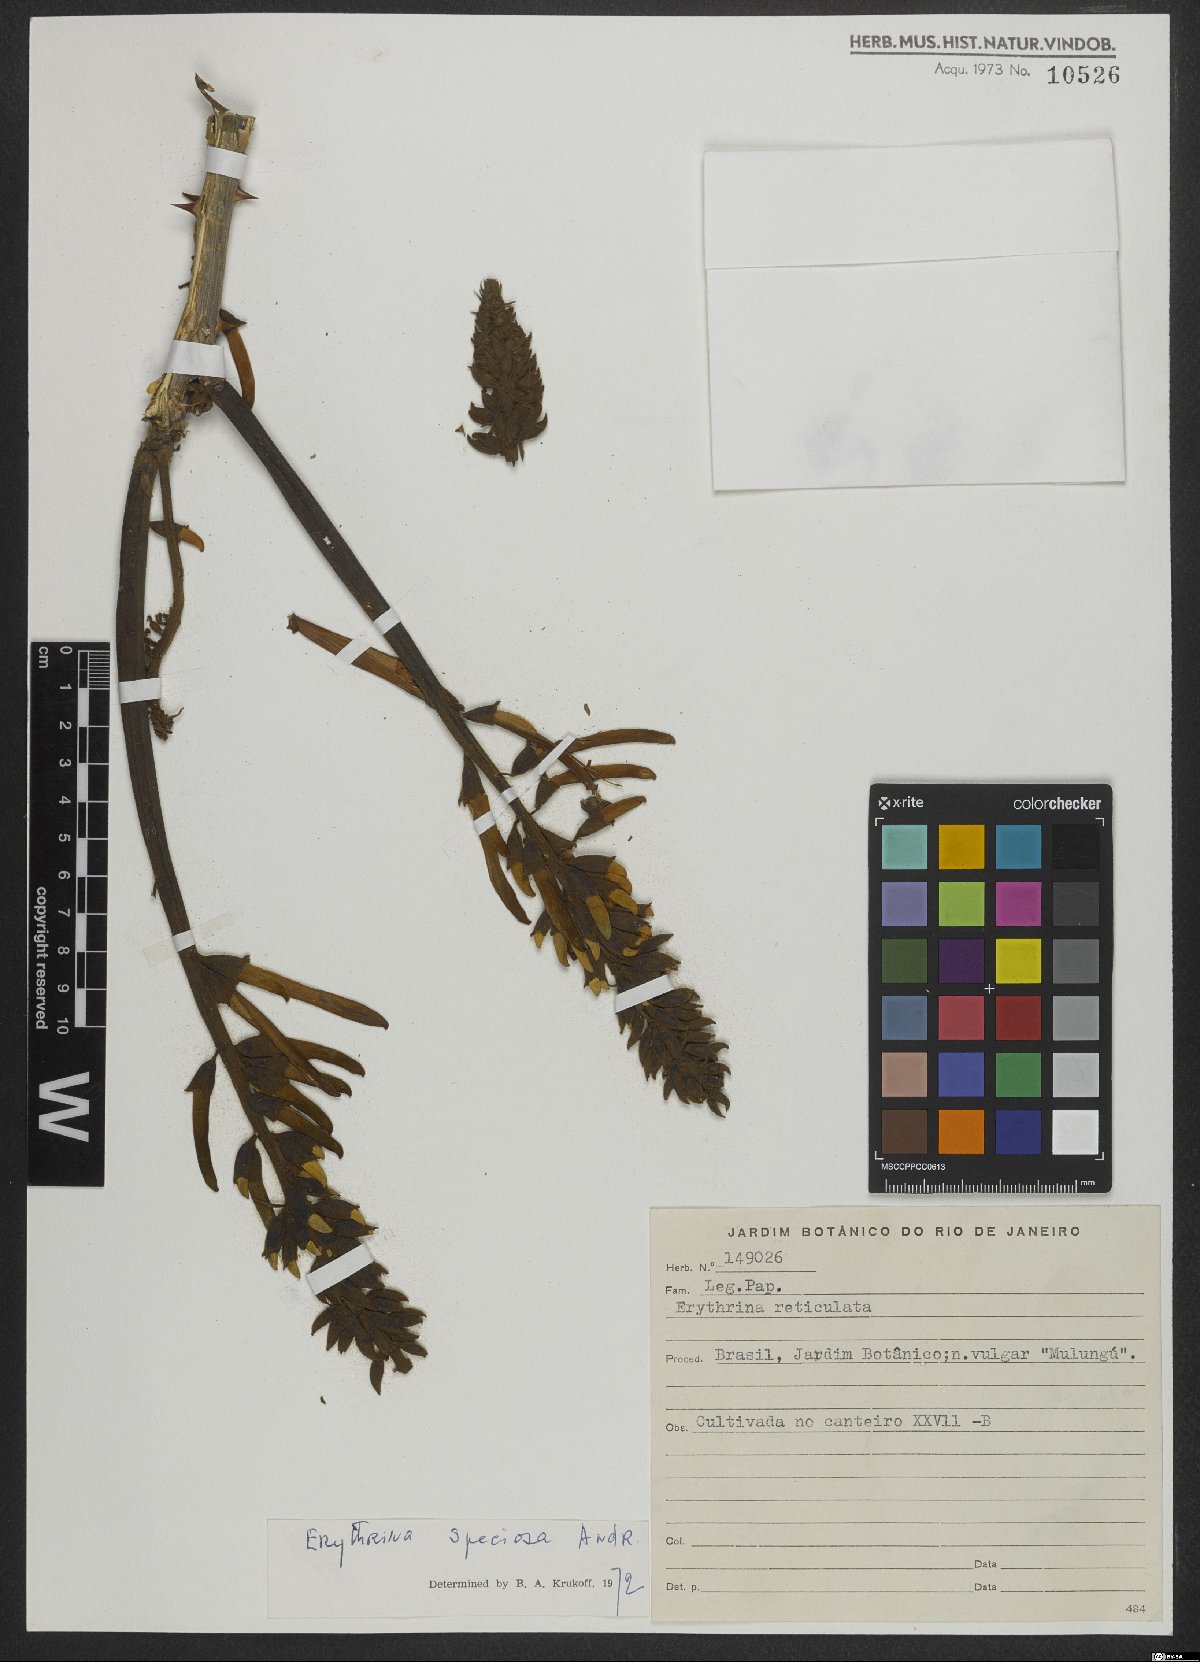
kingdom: Plantae
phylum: Tracheophyta
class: Magnoliopsida
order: Fabales
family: Fabaceae
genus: Erythrina
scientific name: Erythrina speciosa
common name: Coral tree
